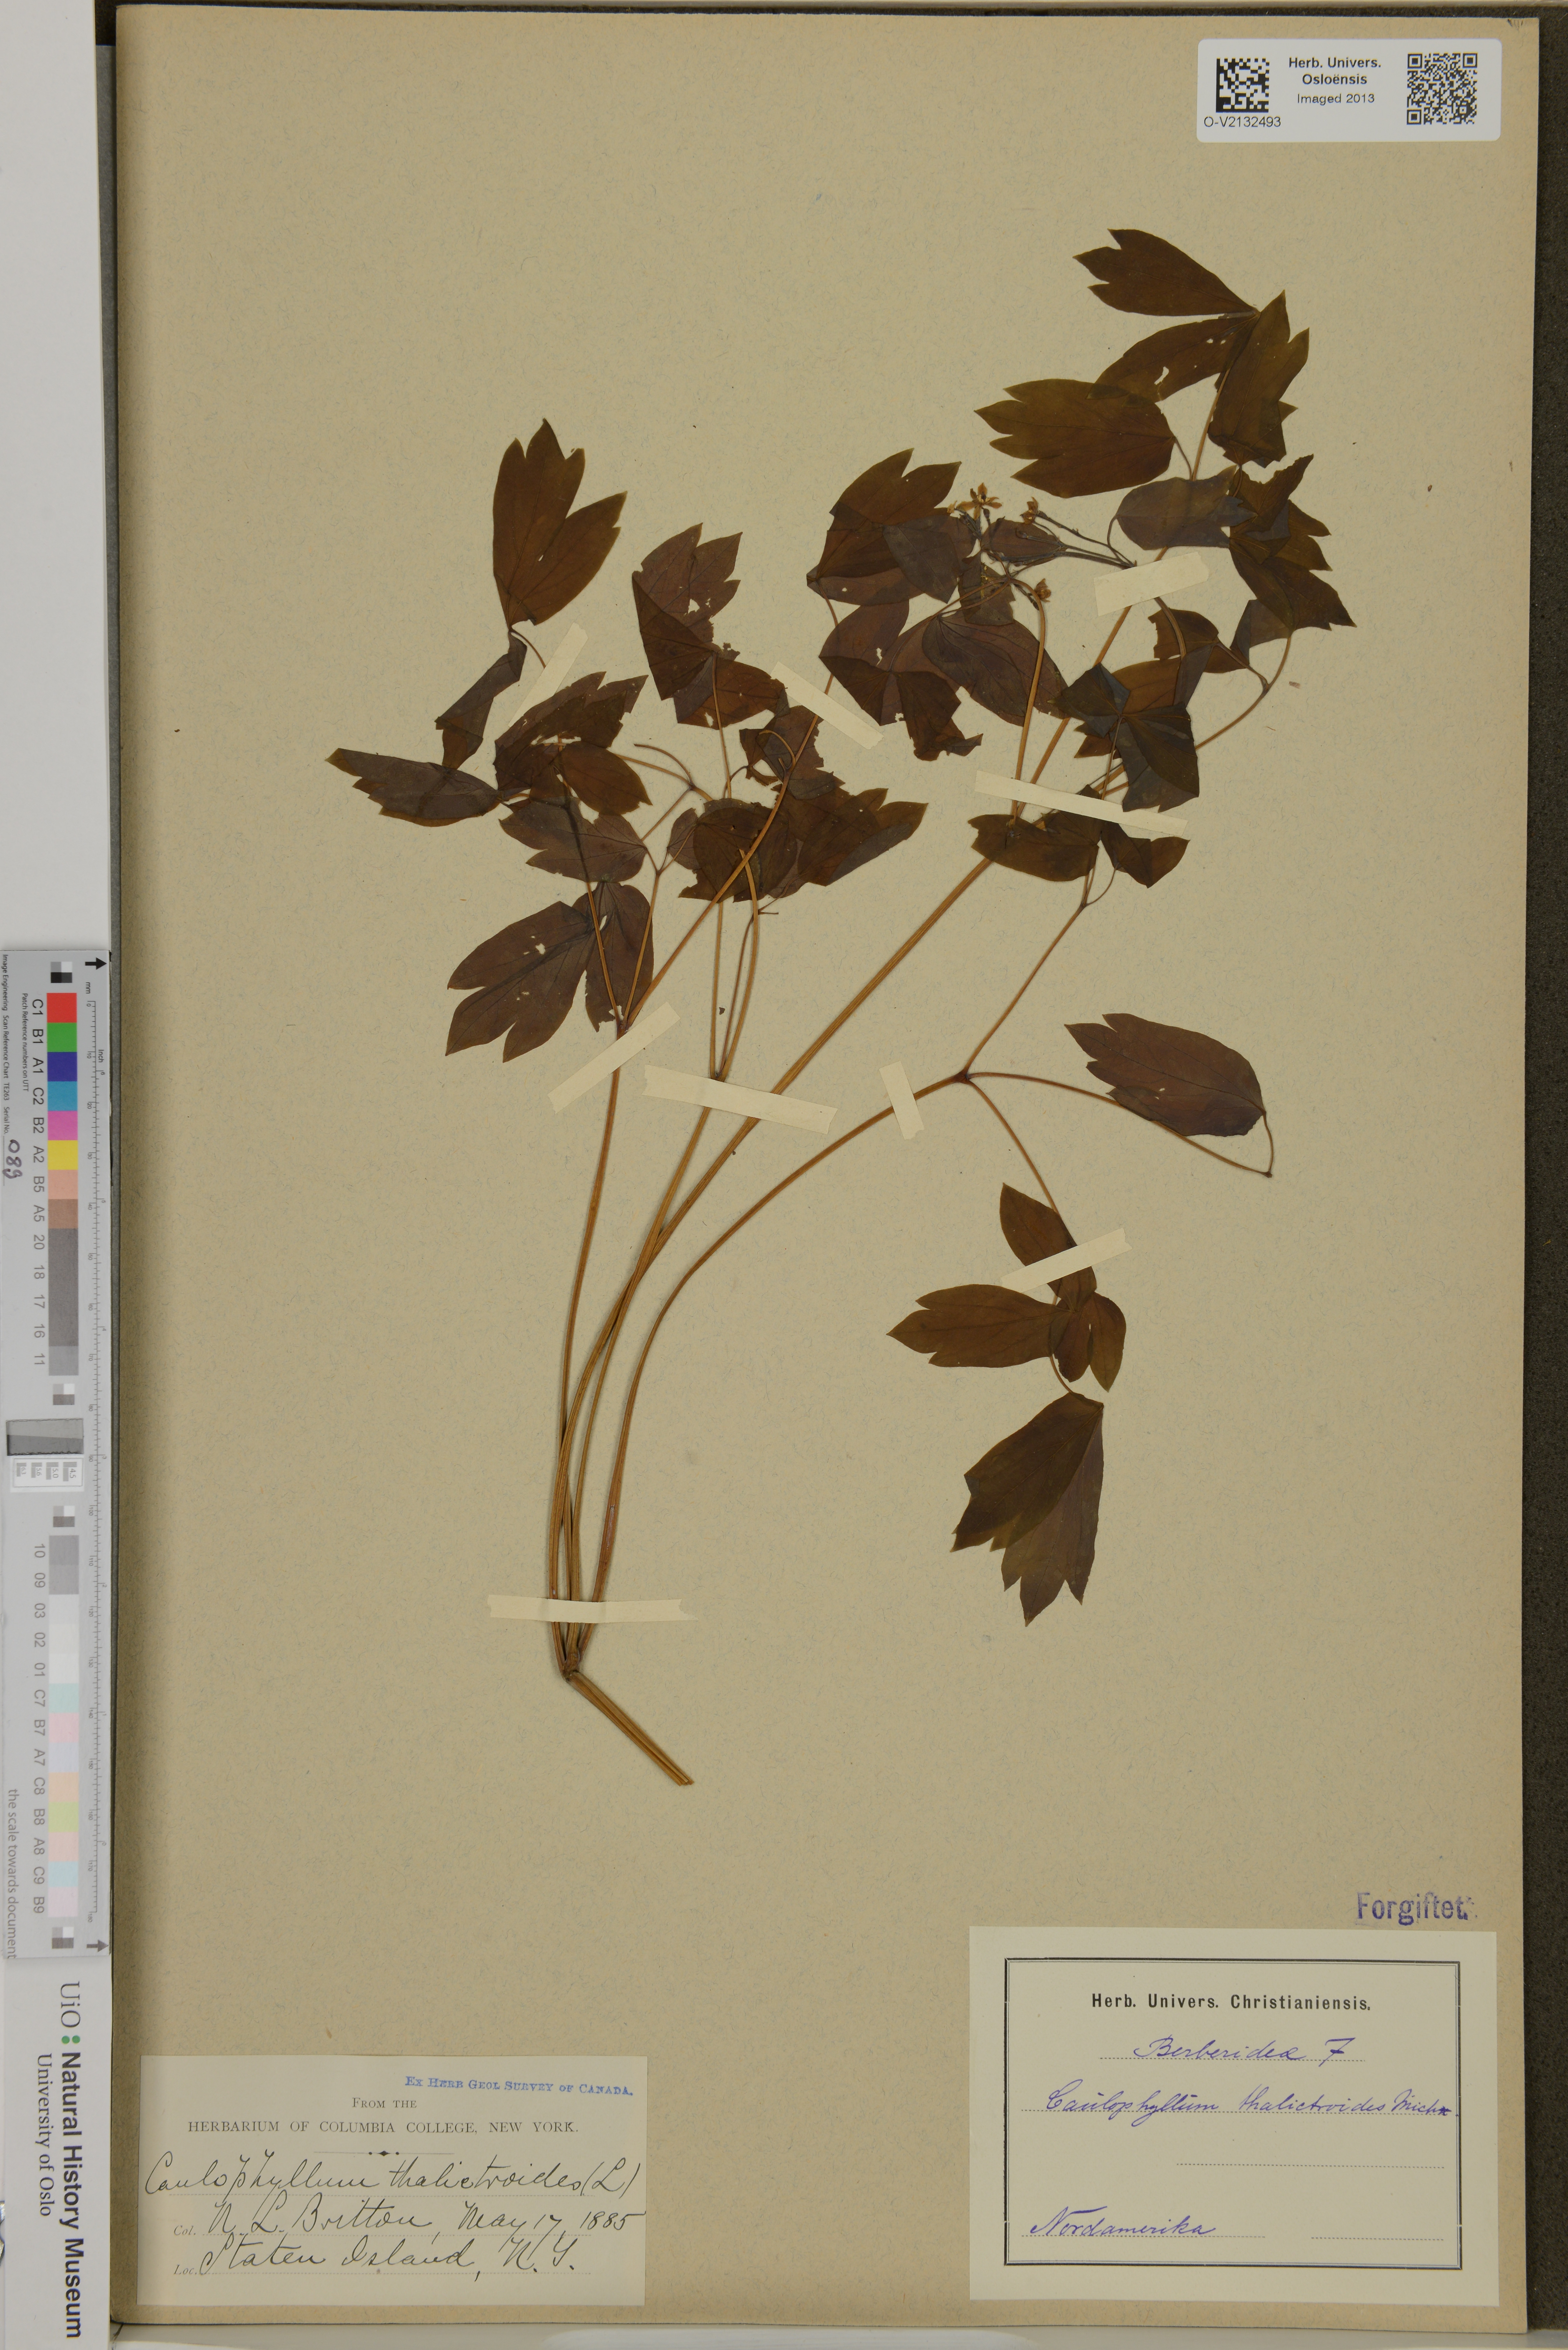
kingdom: Plantae
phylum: Tracheophyta
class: Magnoliopsida
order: Ranunculales
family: Berberidaceae
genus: Caulophyllum
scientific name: Caulophyllum thalictroides
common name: Blue cohosh
